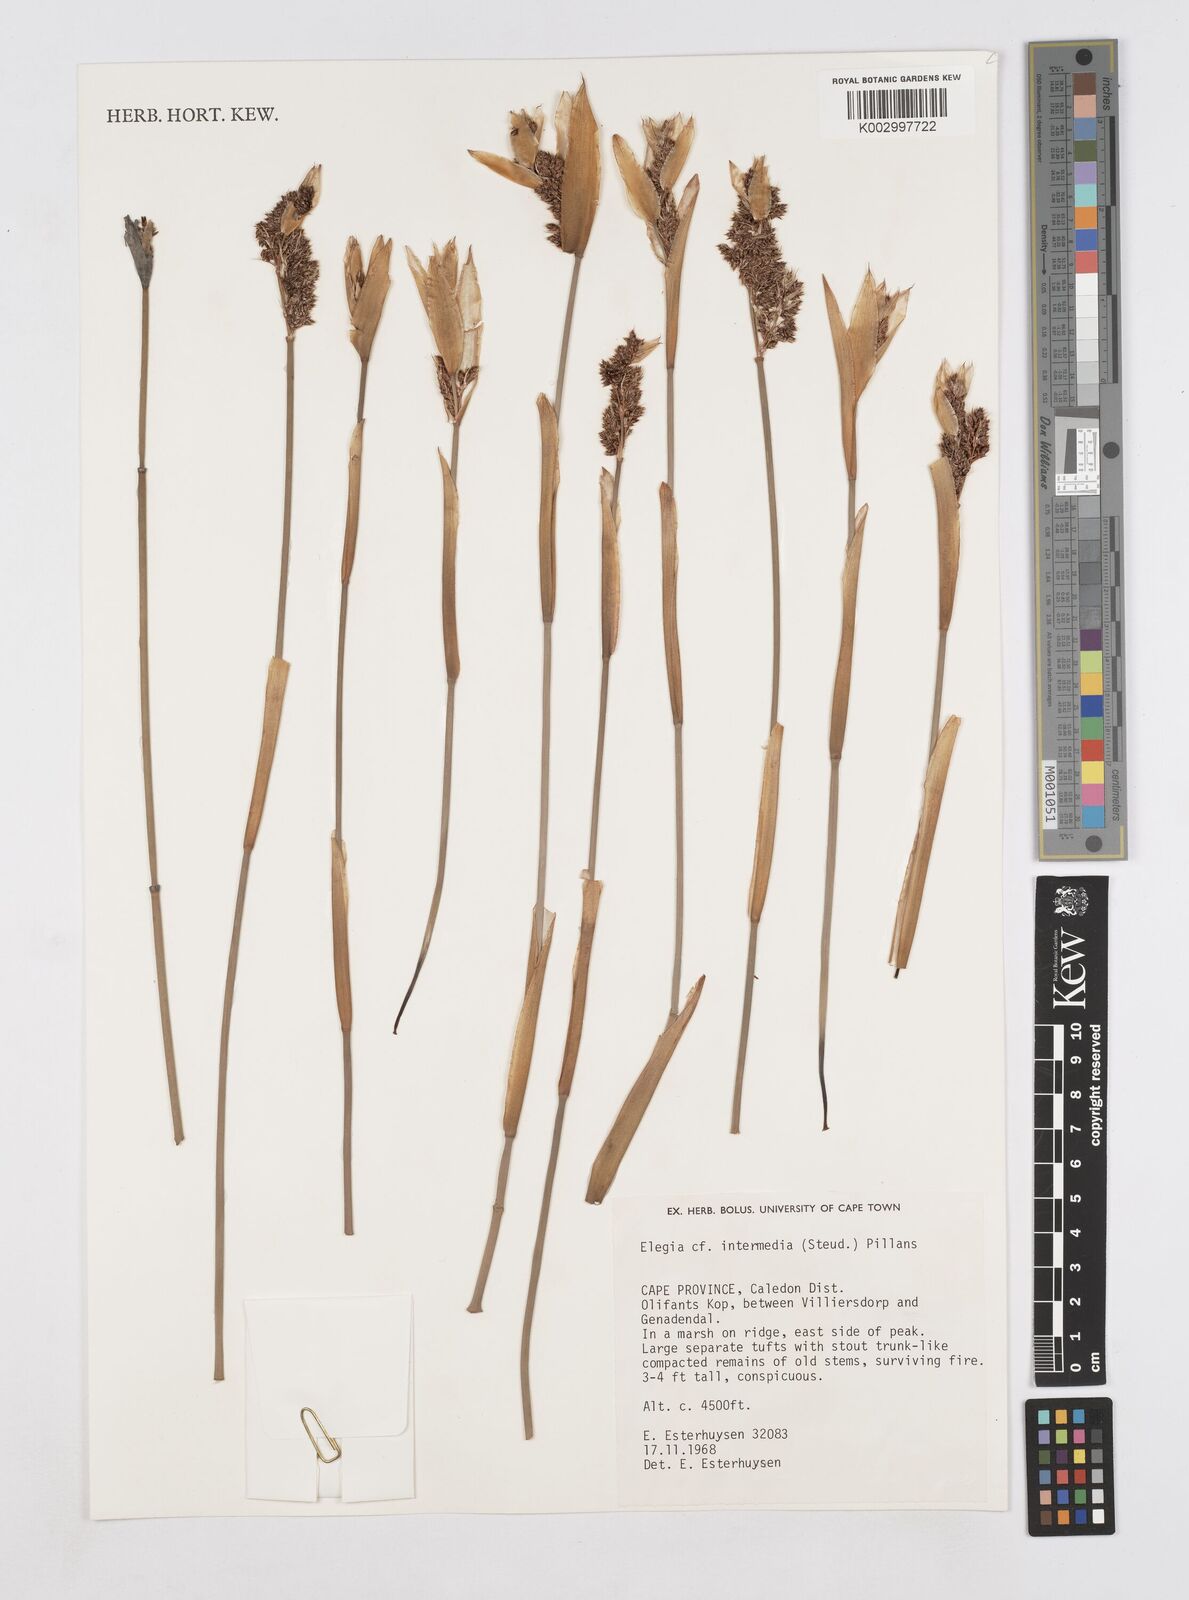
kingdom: Plantae
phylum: Tracheophyta
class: Liliopsida
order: Poales
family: Restionaceae
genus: Elegia
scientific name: Elegia intermedia
